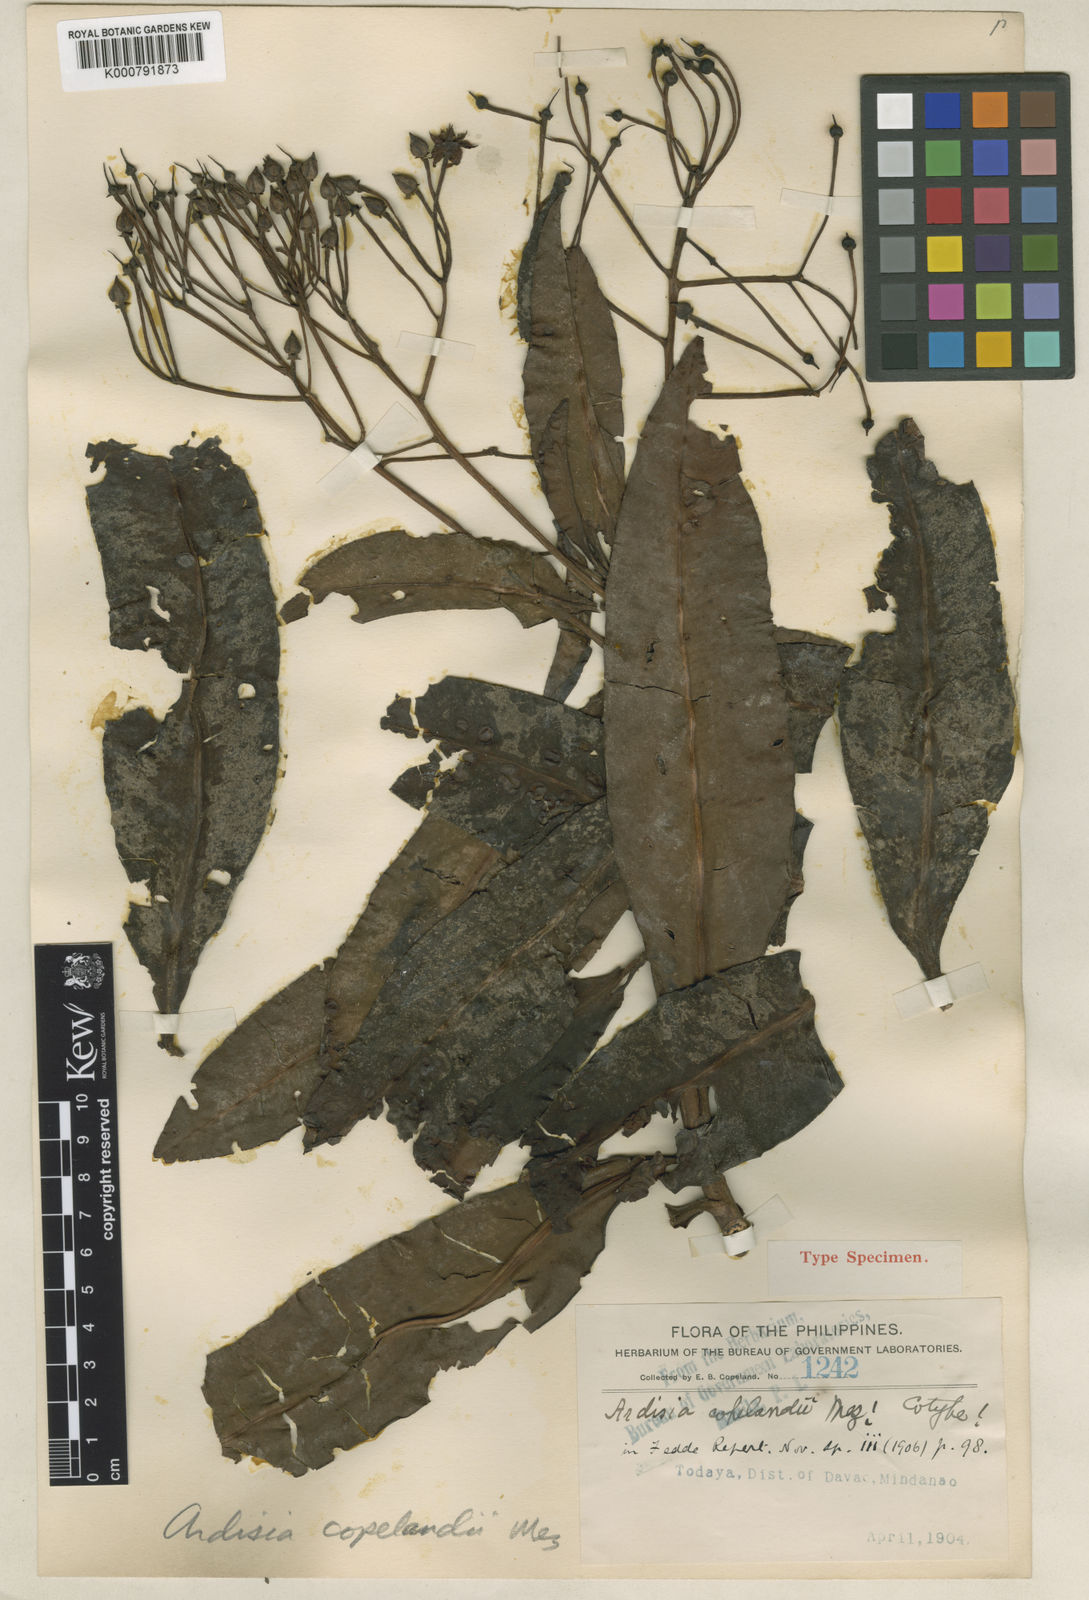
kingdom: Plantae
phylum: Tracheophyta
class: Magnoliopsida
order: Ericales
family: Primulaceae
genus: Ardisia
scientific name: Ardisia copelandii
